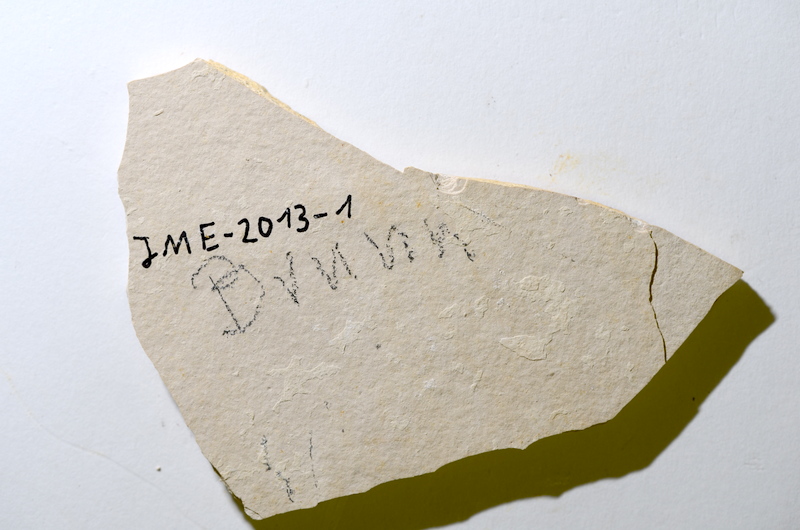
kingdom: Animalia
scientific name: Animalia
